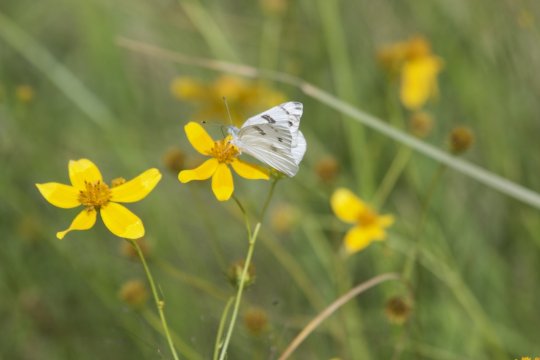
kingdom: Animalia
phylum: Arthropoda
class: Insecta
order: Lepidoptera
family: Pieridae
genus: Pontia
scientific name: Pontia protodice
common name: Checkered White
